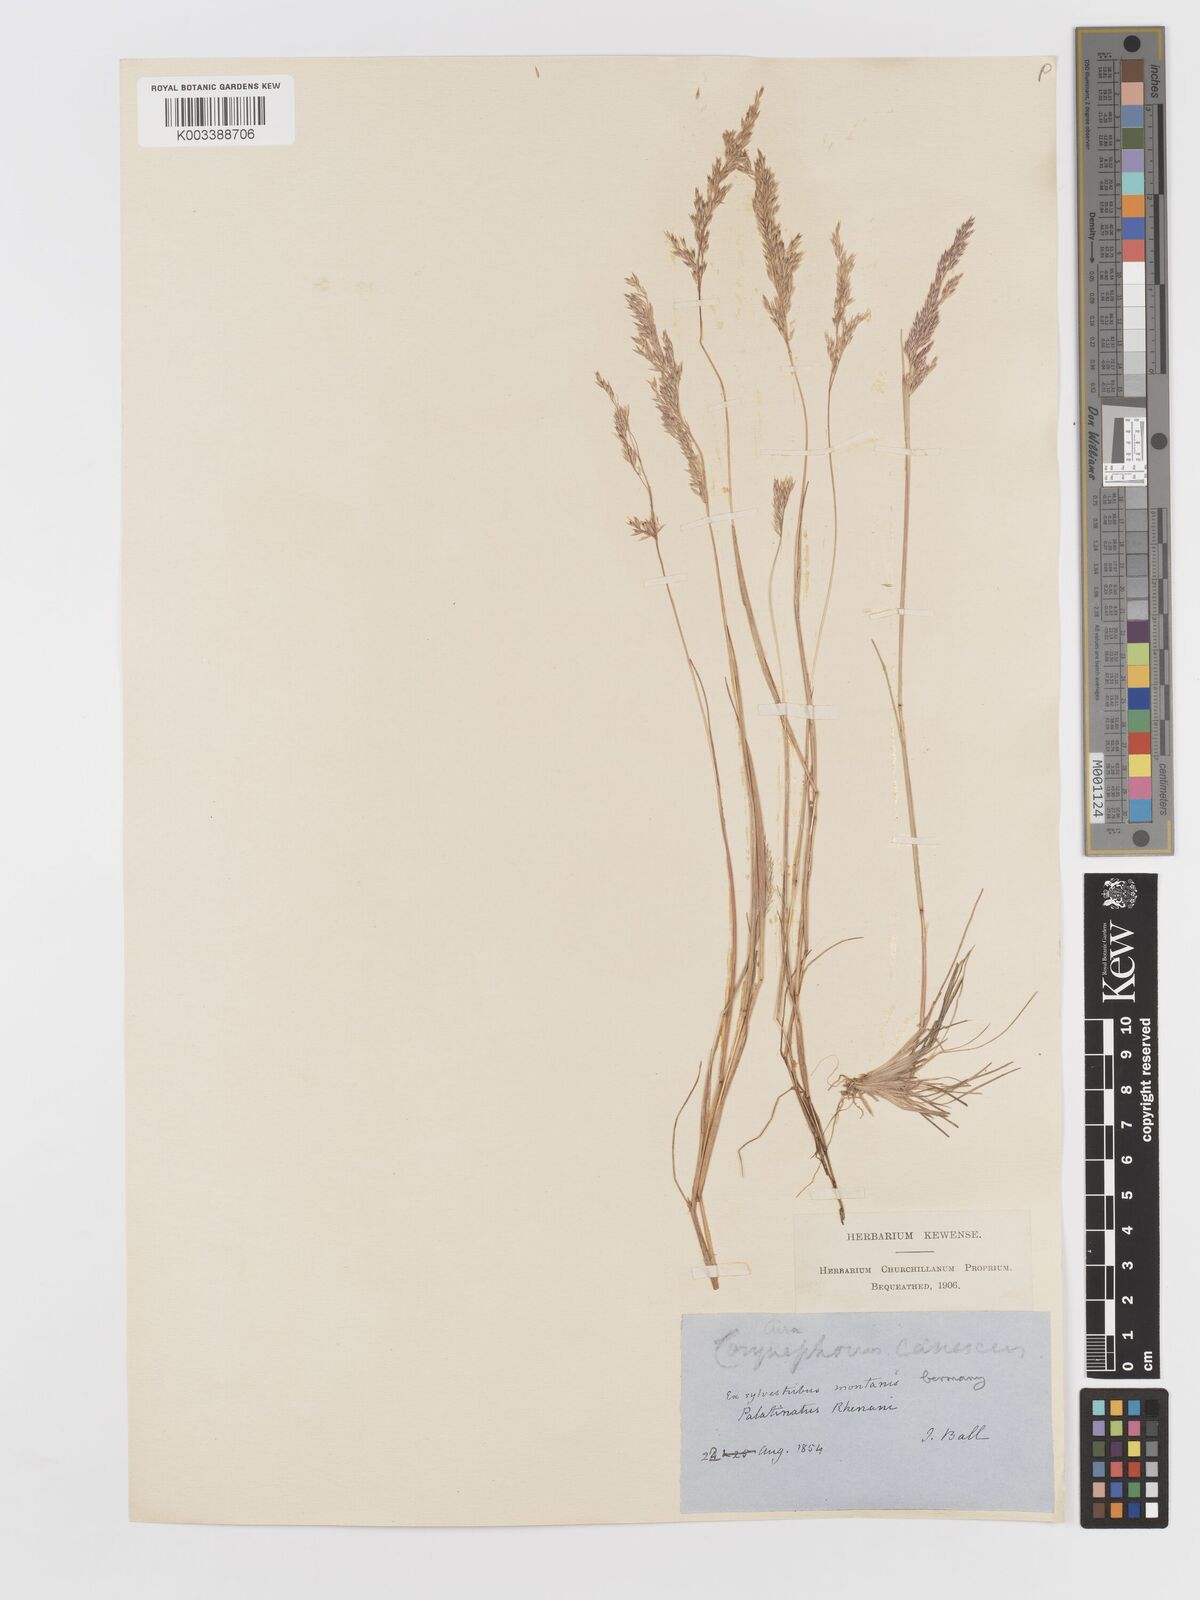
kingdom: Plantae
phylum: Tracheophyta
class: Liliopsida
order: Poales
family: Poaceae
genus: Corynephorus
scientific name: Corynephorus canescens
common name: Grey hair-grass
